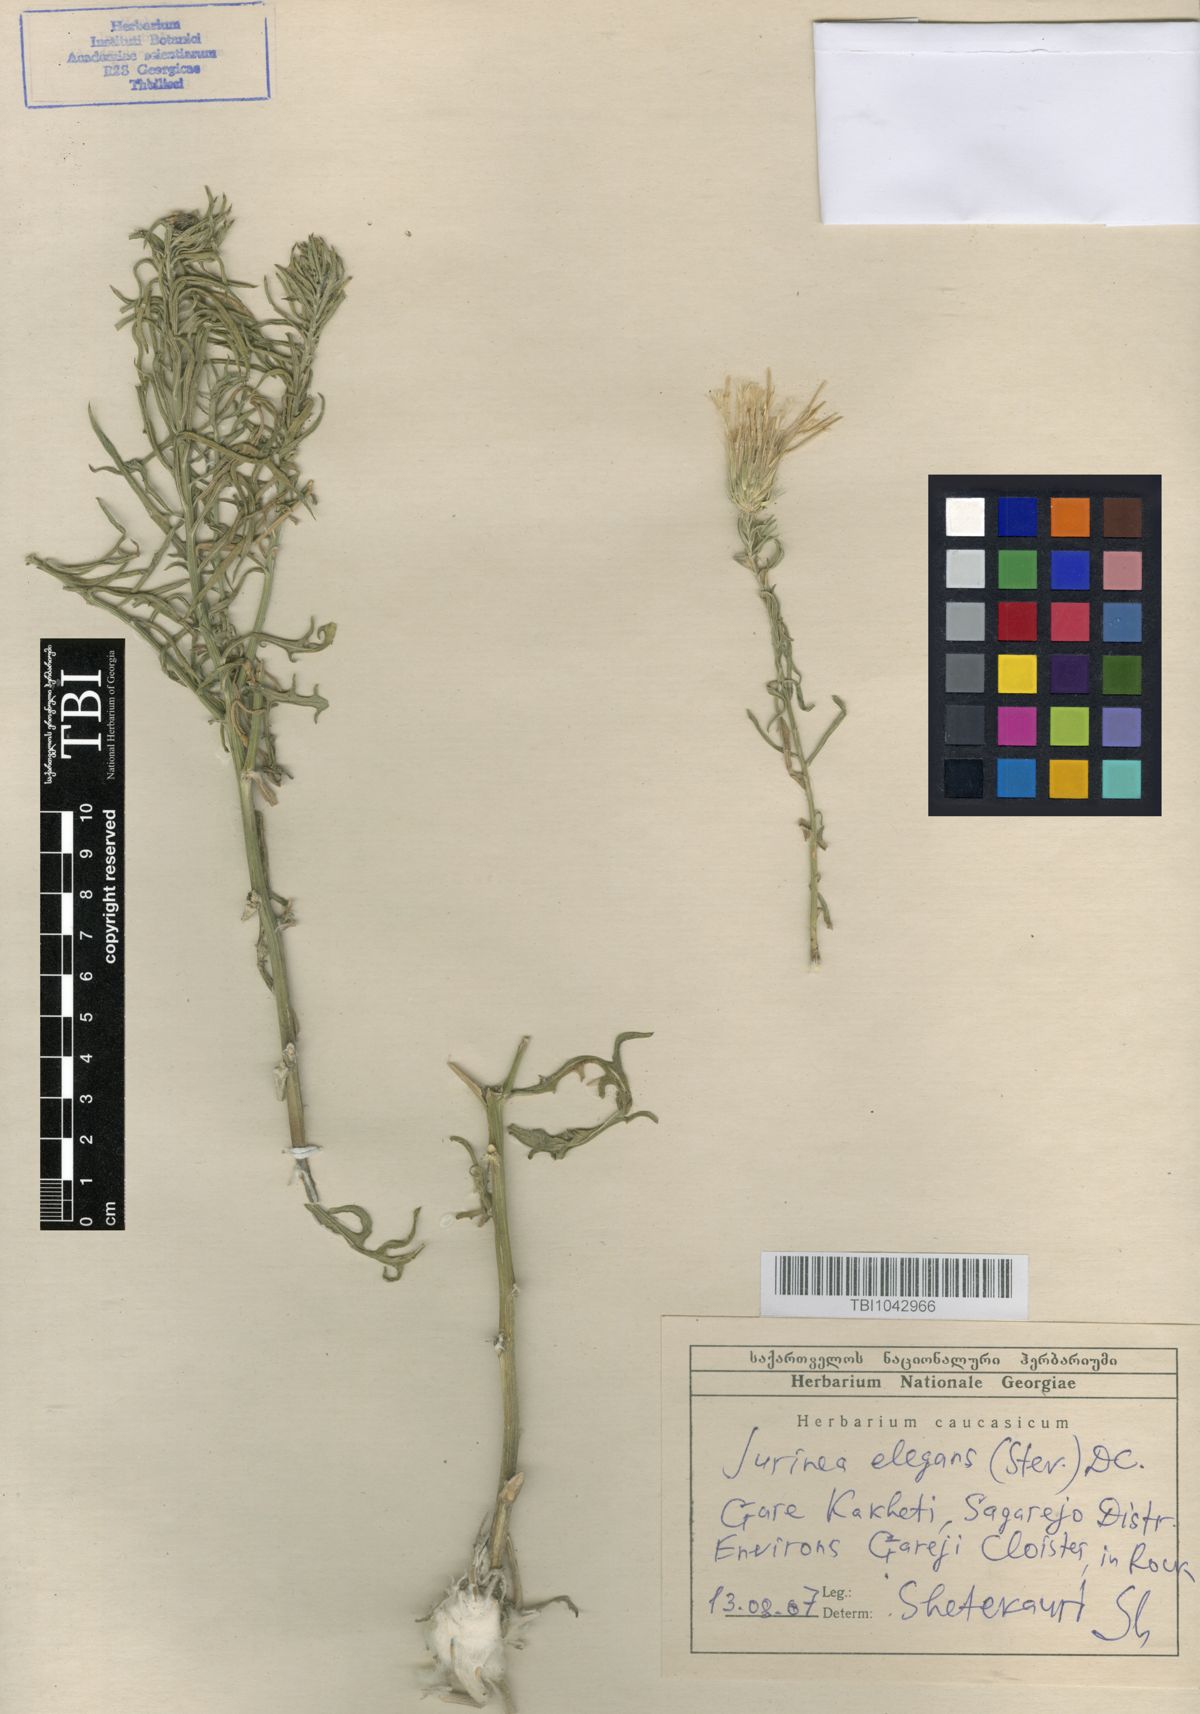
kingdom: Plantae
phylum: Tracheophyta
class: Magnoliopsida
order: Asterales
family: Asteraceae
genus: Jurinea
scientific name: Jurinea elegans
